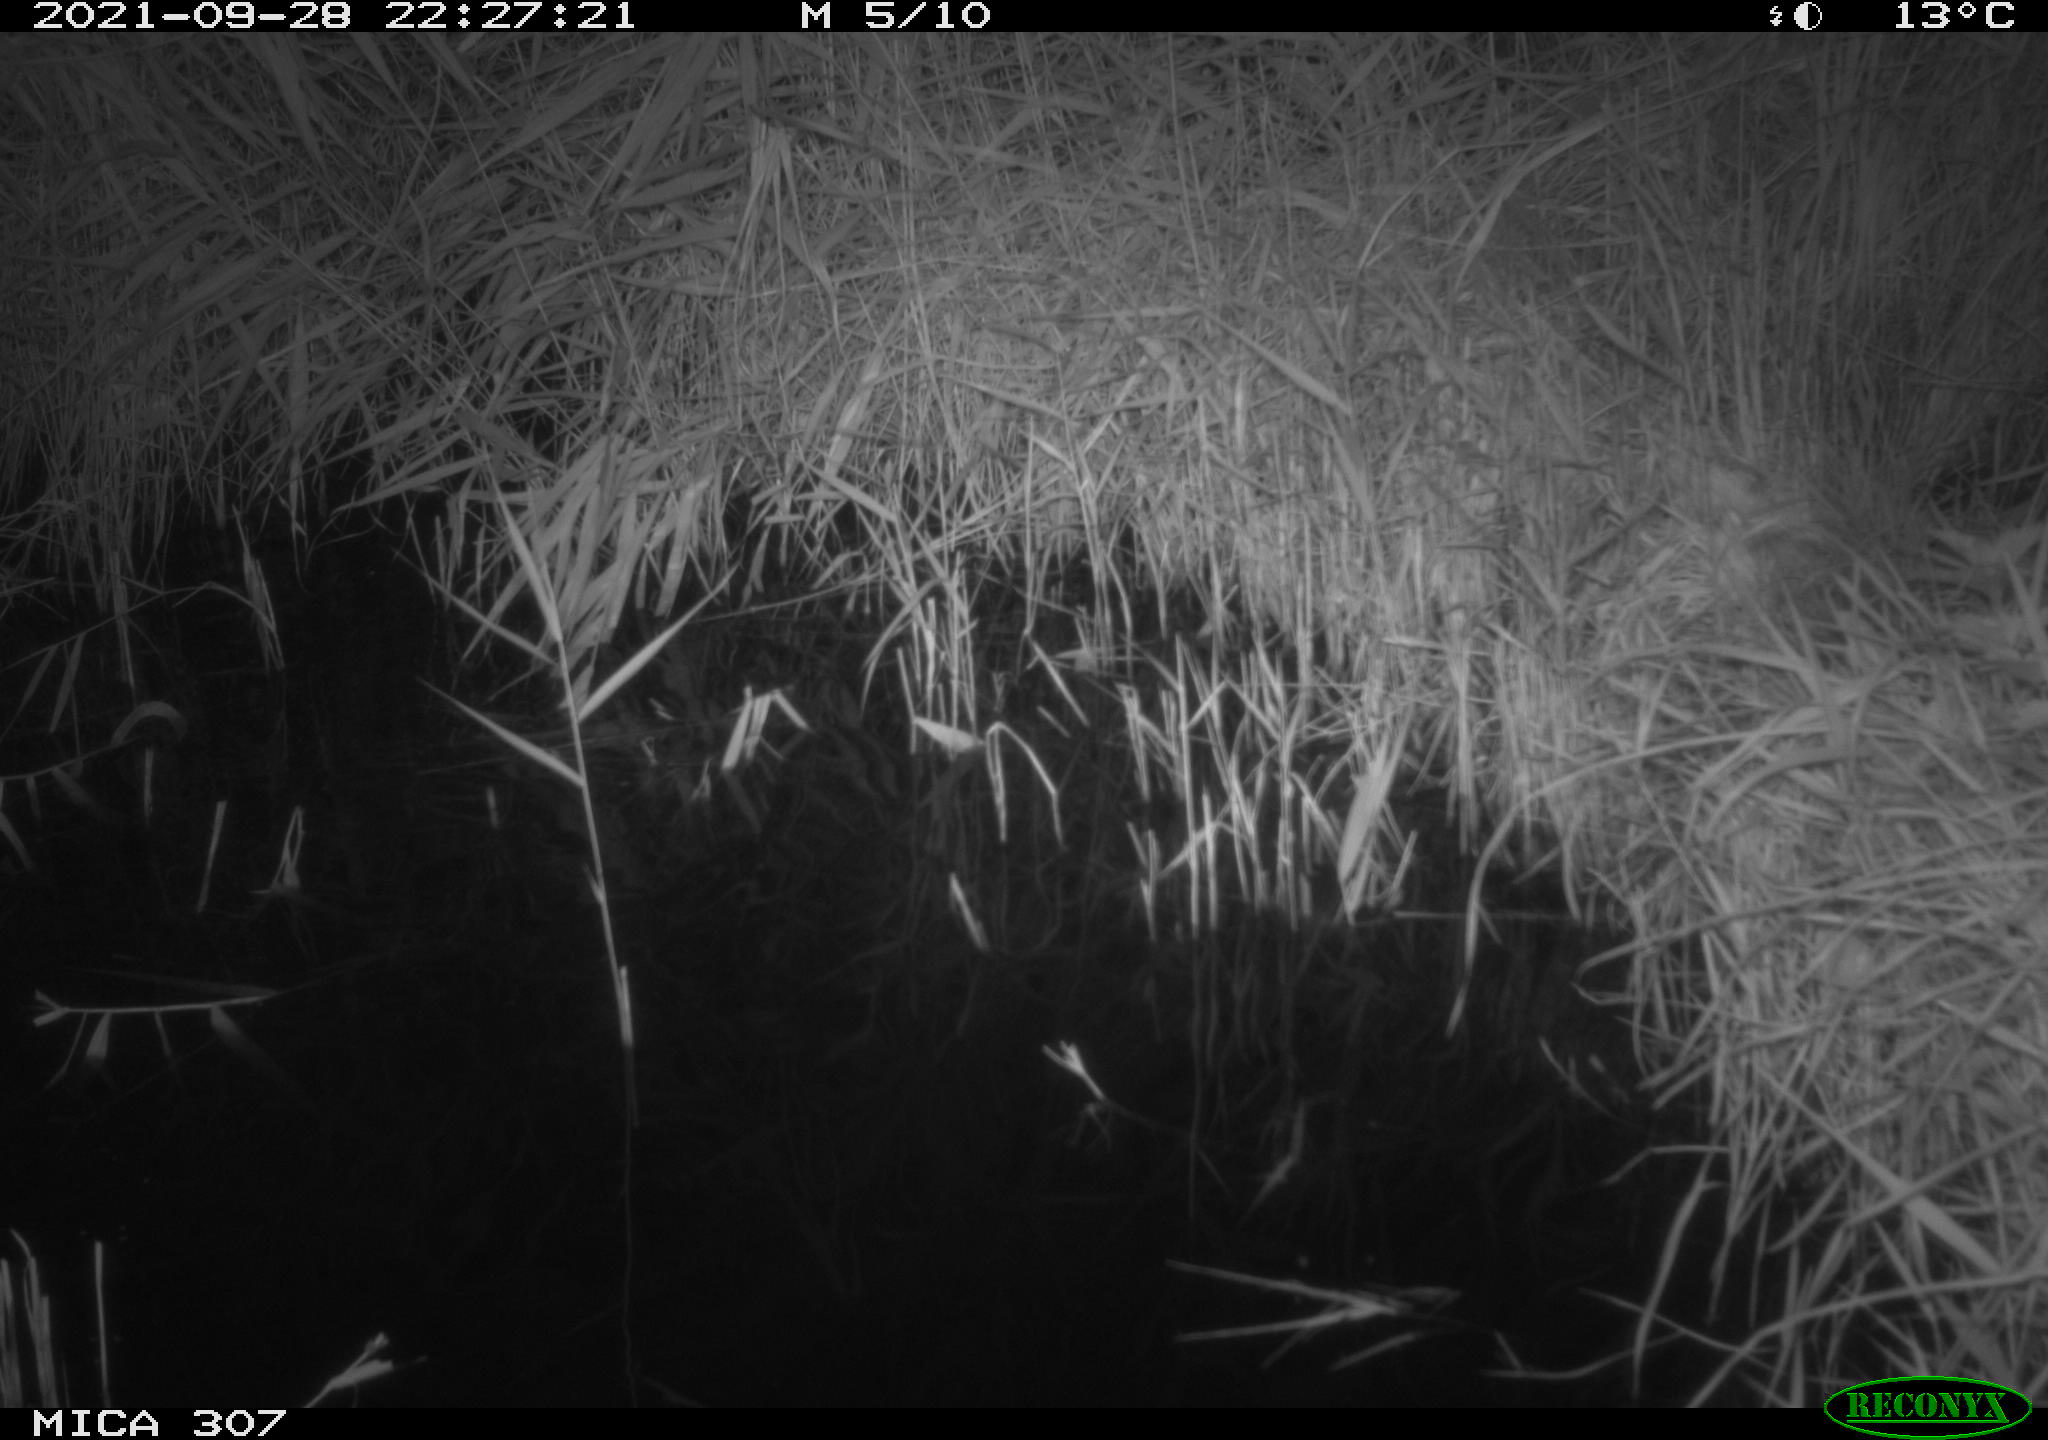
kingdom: Animalia
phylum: Chordata
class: Mammalia
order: Rodentia
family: Muridae
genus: Rattus
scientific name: Rattus norvegicus
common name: Brown rat
